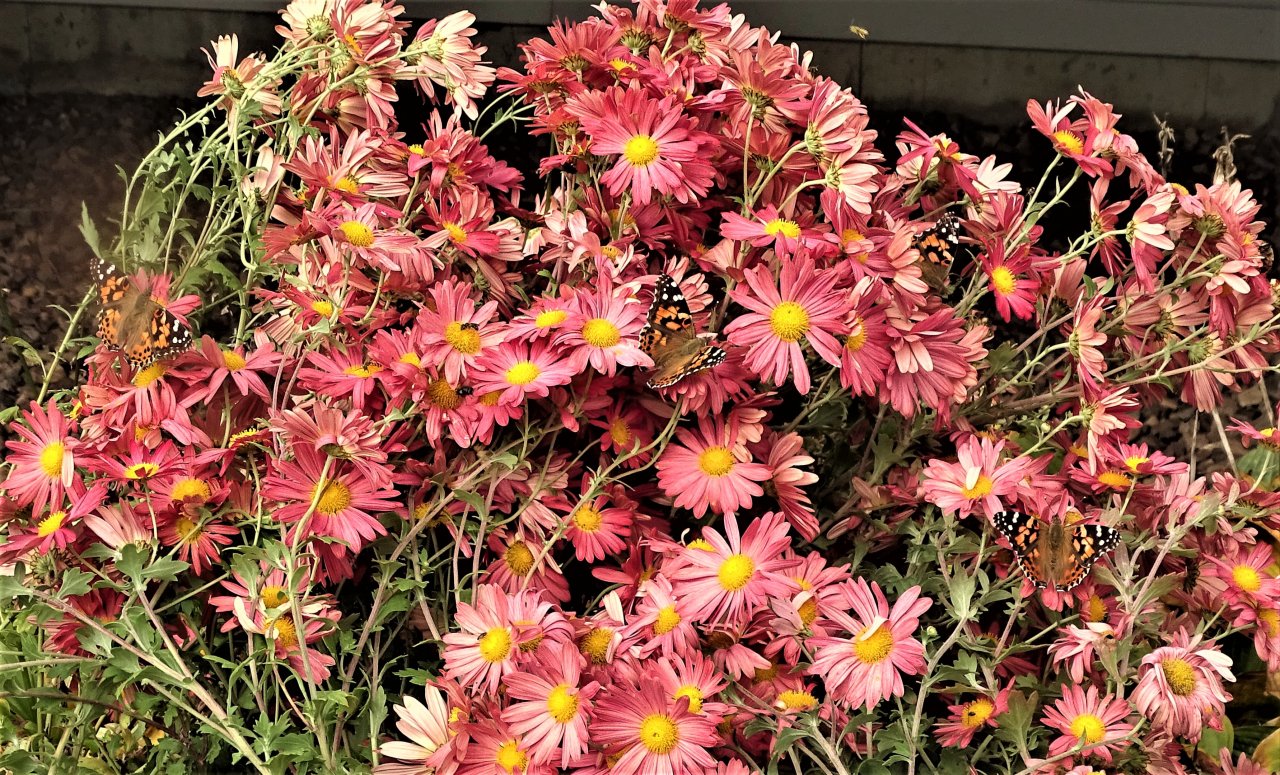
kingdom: Animalia
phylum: Arthropoda
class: Insecta
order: Lepidoptera
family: Nymphalidae
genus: Vanessa
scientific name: Vanessa cardui
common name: Painted Lady
